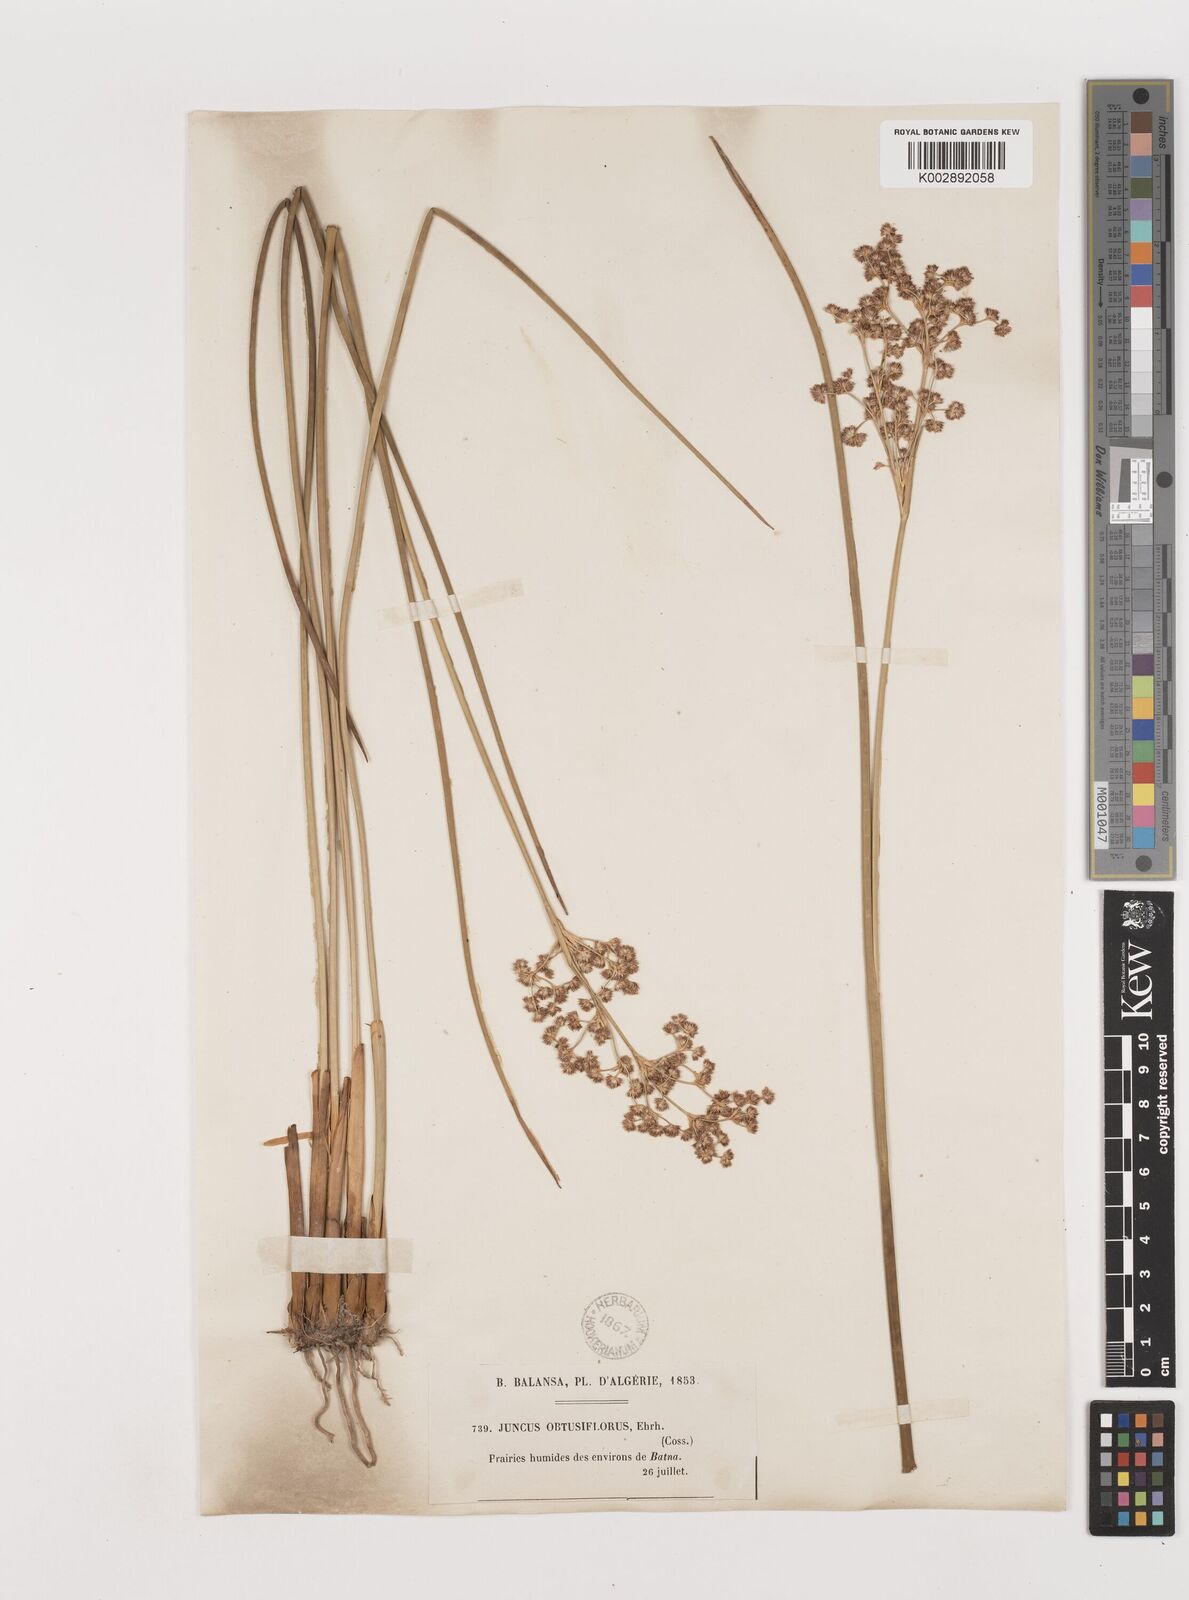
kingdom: Plantae
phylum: Tracheophyta
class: Liliopsida
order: Poales
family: Juncaceae
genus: Juncus
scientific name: Juncus subnodulosus
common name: Blunt-flowered rush
